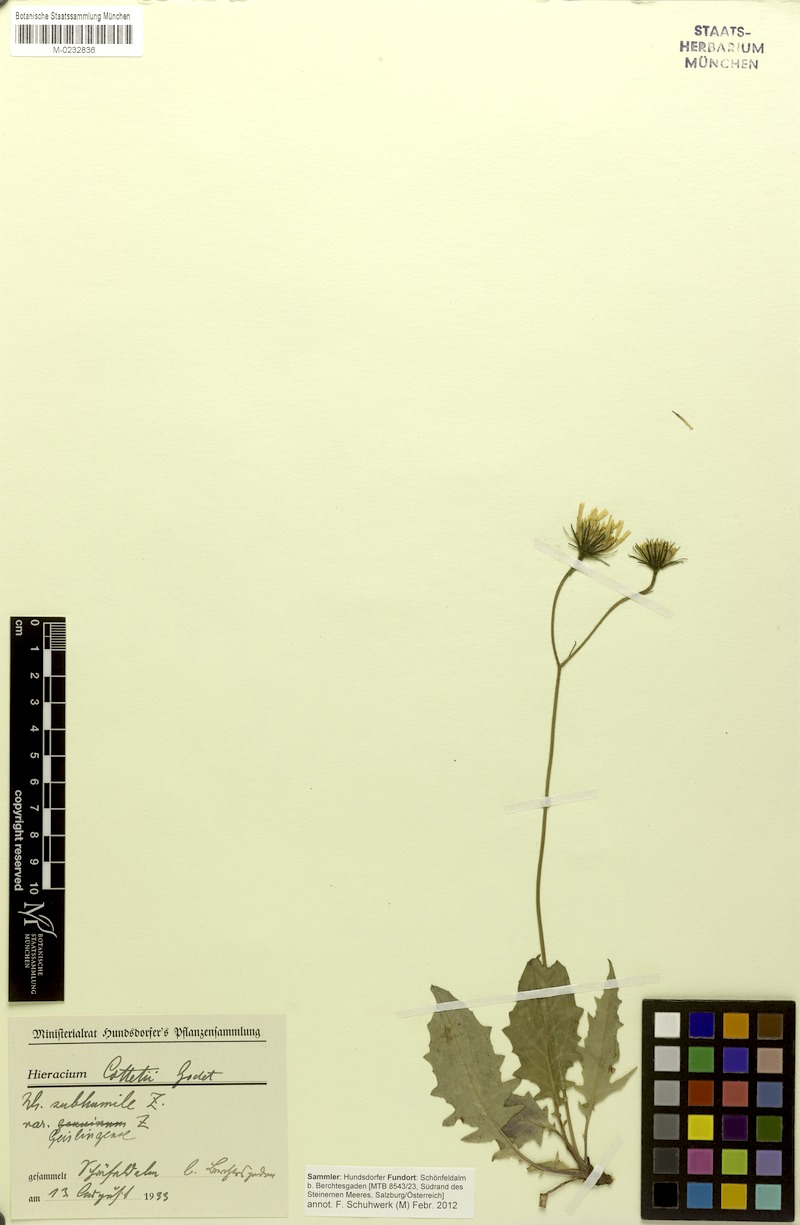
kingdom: Plantae
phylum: Tracheophyta
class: Magnoliopsida
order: Asterales
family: Asteraceae
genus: Hieracium
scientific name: Hieracium cottetii
